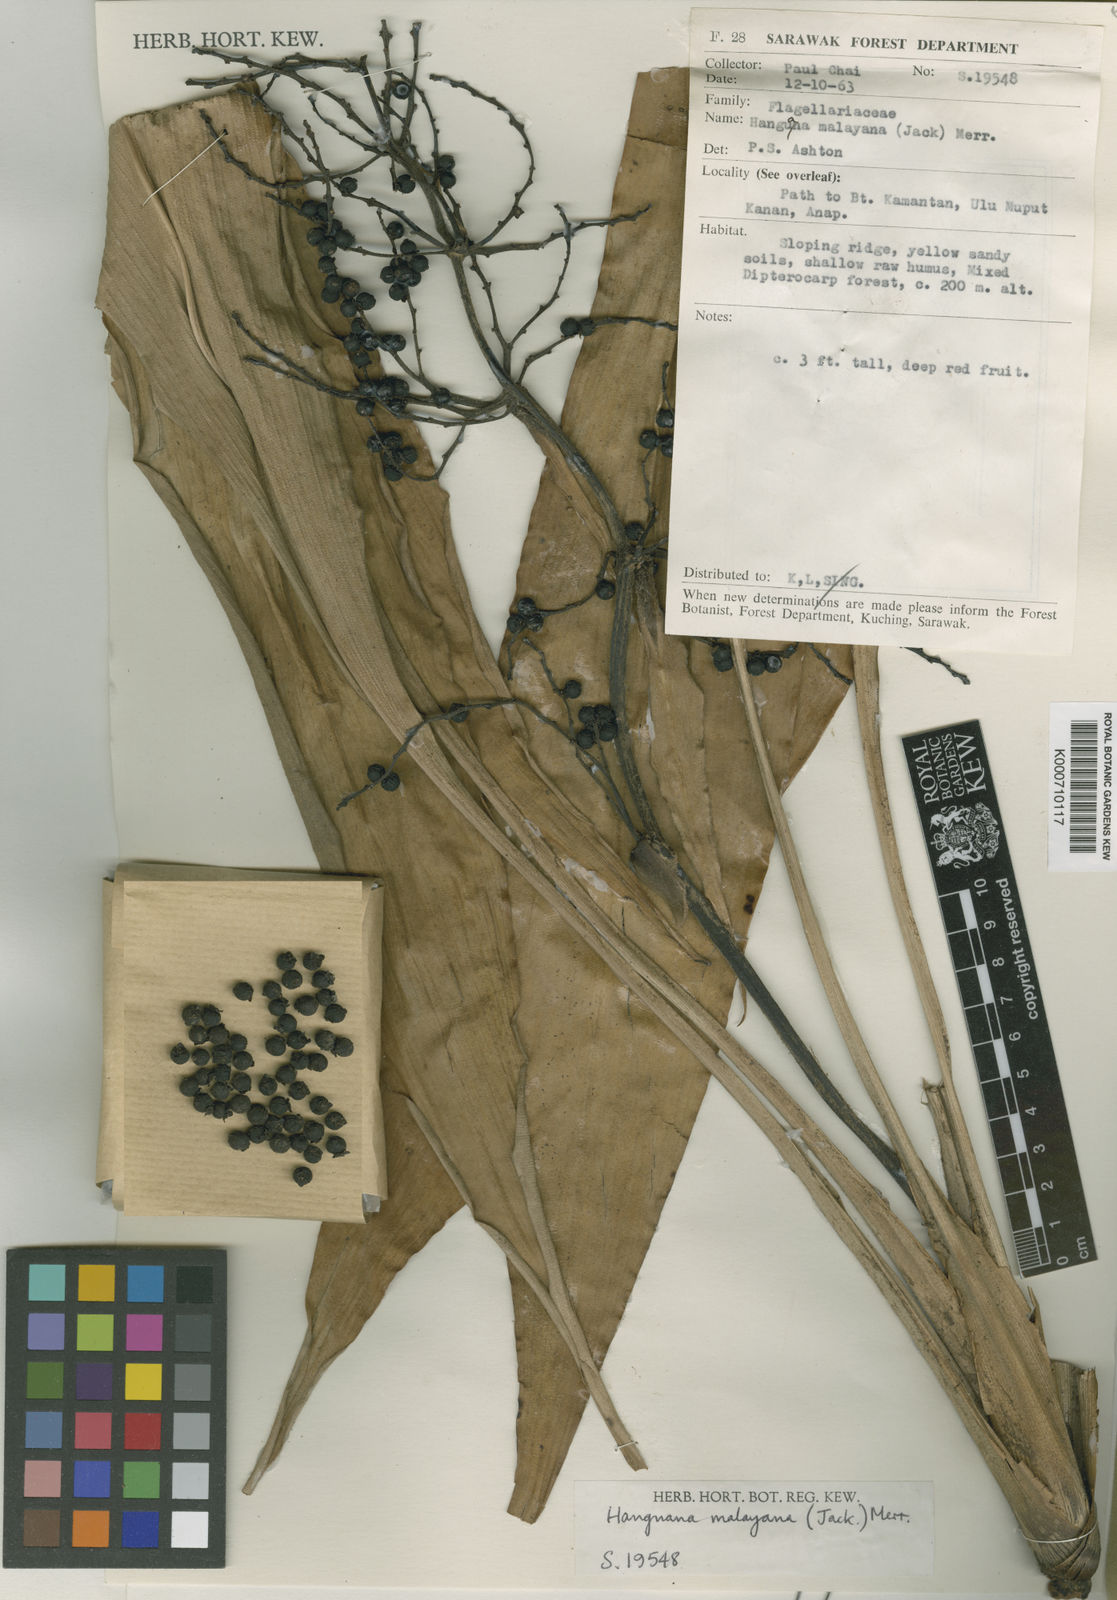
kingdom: Plantae
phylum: Tracheophyta
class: Liliopsida
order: Commelinales
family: Hanguanaceae
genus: Hanguana
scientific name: Hanguana malayana
